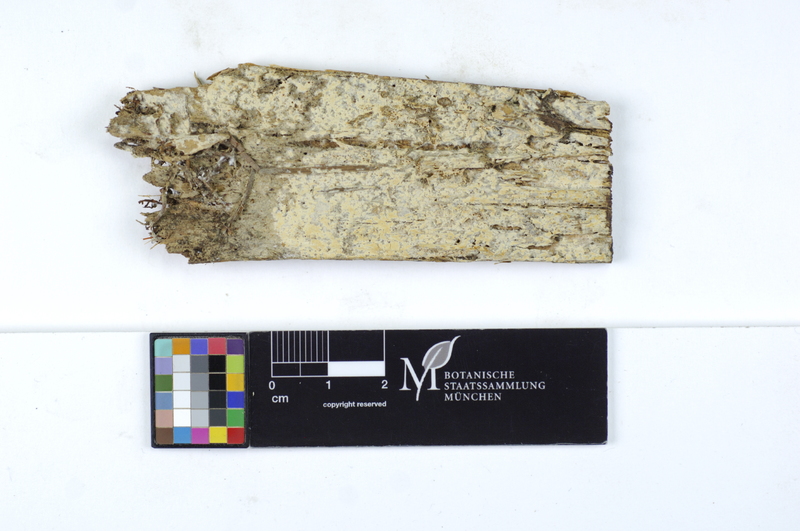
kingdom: Fungi
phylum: Basidiomycota
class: Agaricomycetes
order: Amylocorticiales
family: Amylocorticiaceae
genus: Ceraceomyces
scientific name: Ceraceomyces eludens
